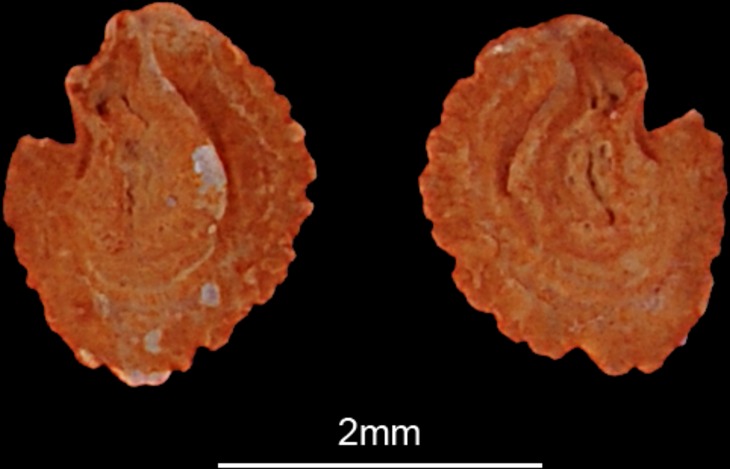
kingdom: Animalia
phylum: Chordata
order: Cypriniformes
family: Cyprinidae
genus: Osteochilus
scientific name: Osteochilus waandersii
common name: Waandersii's hard-lipped barb
